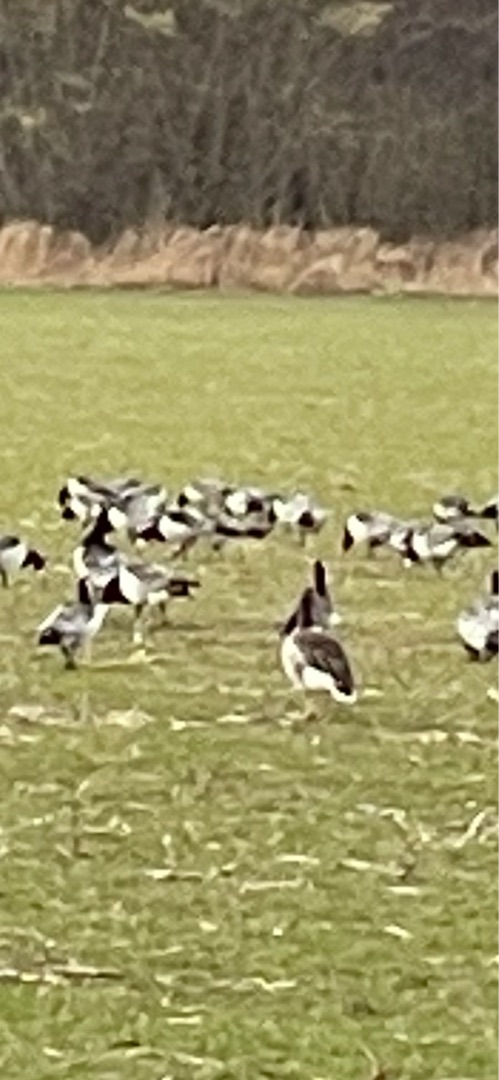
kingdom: Animalia
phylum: Chordata
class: Aves
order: Anseriformes
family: Anatidae
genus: Branta
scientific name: Branta leucopsis
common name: Bramgås
